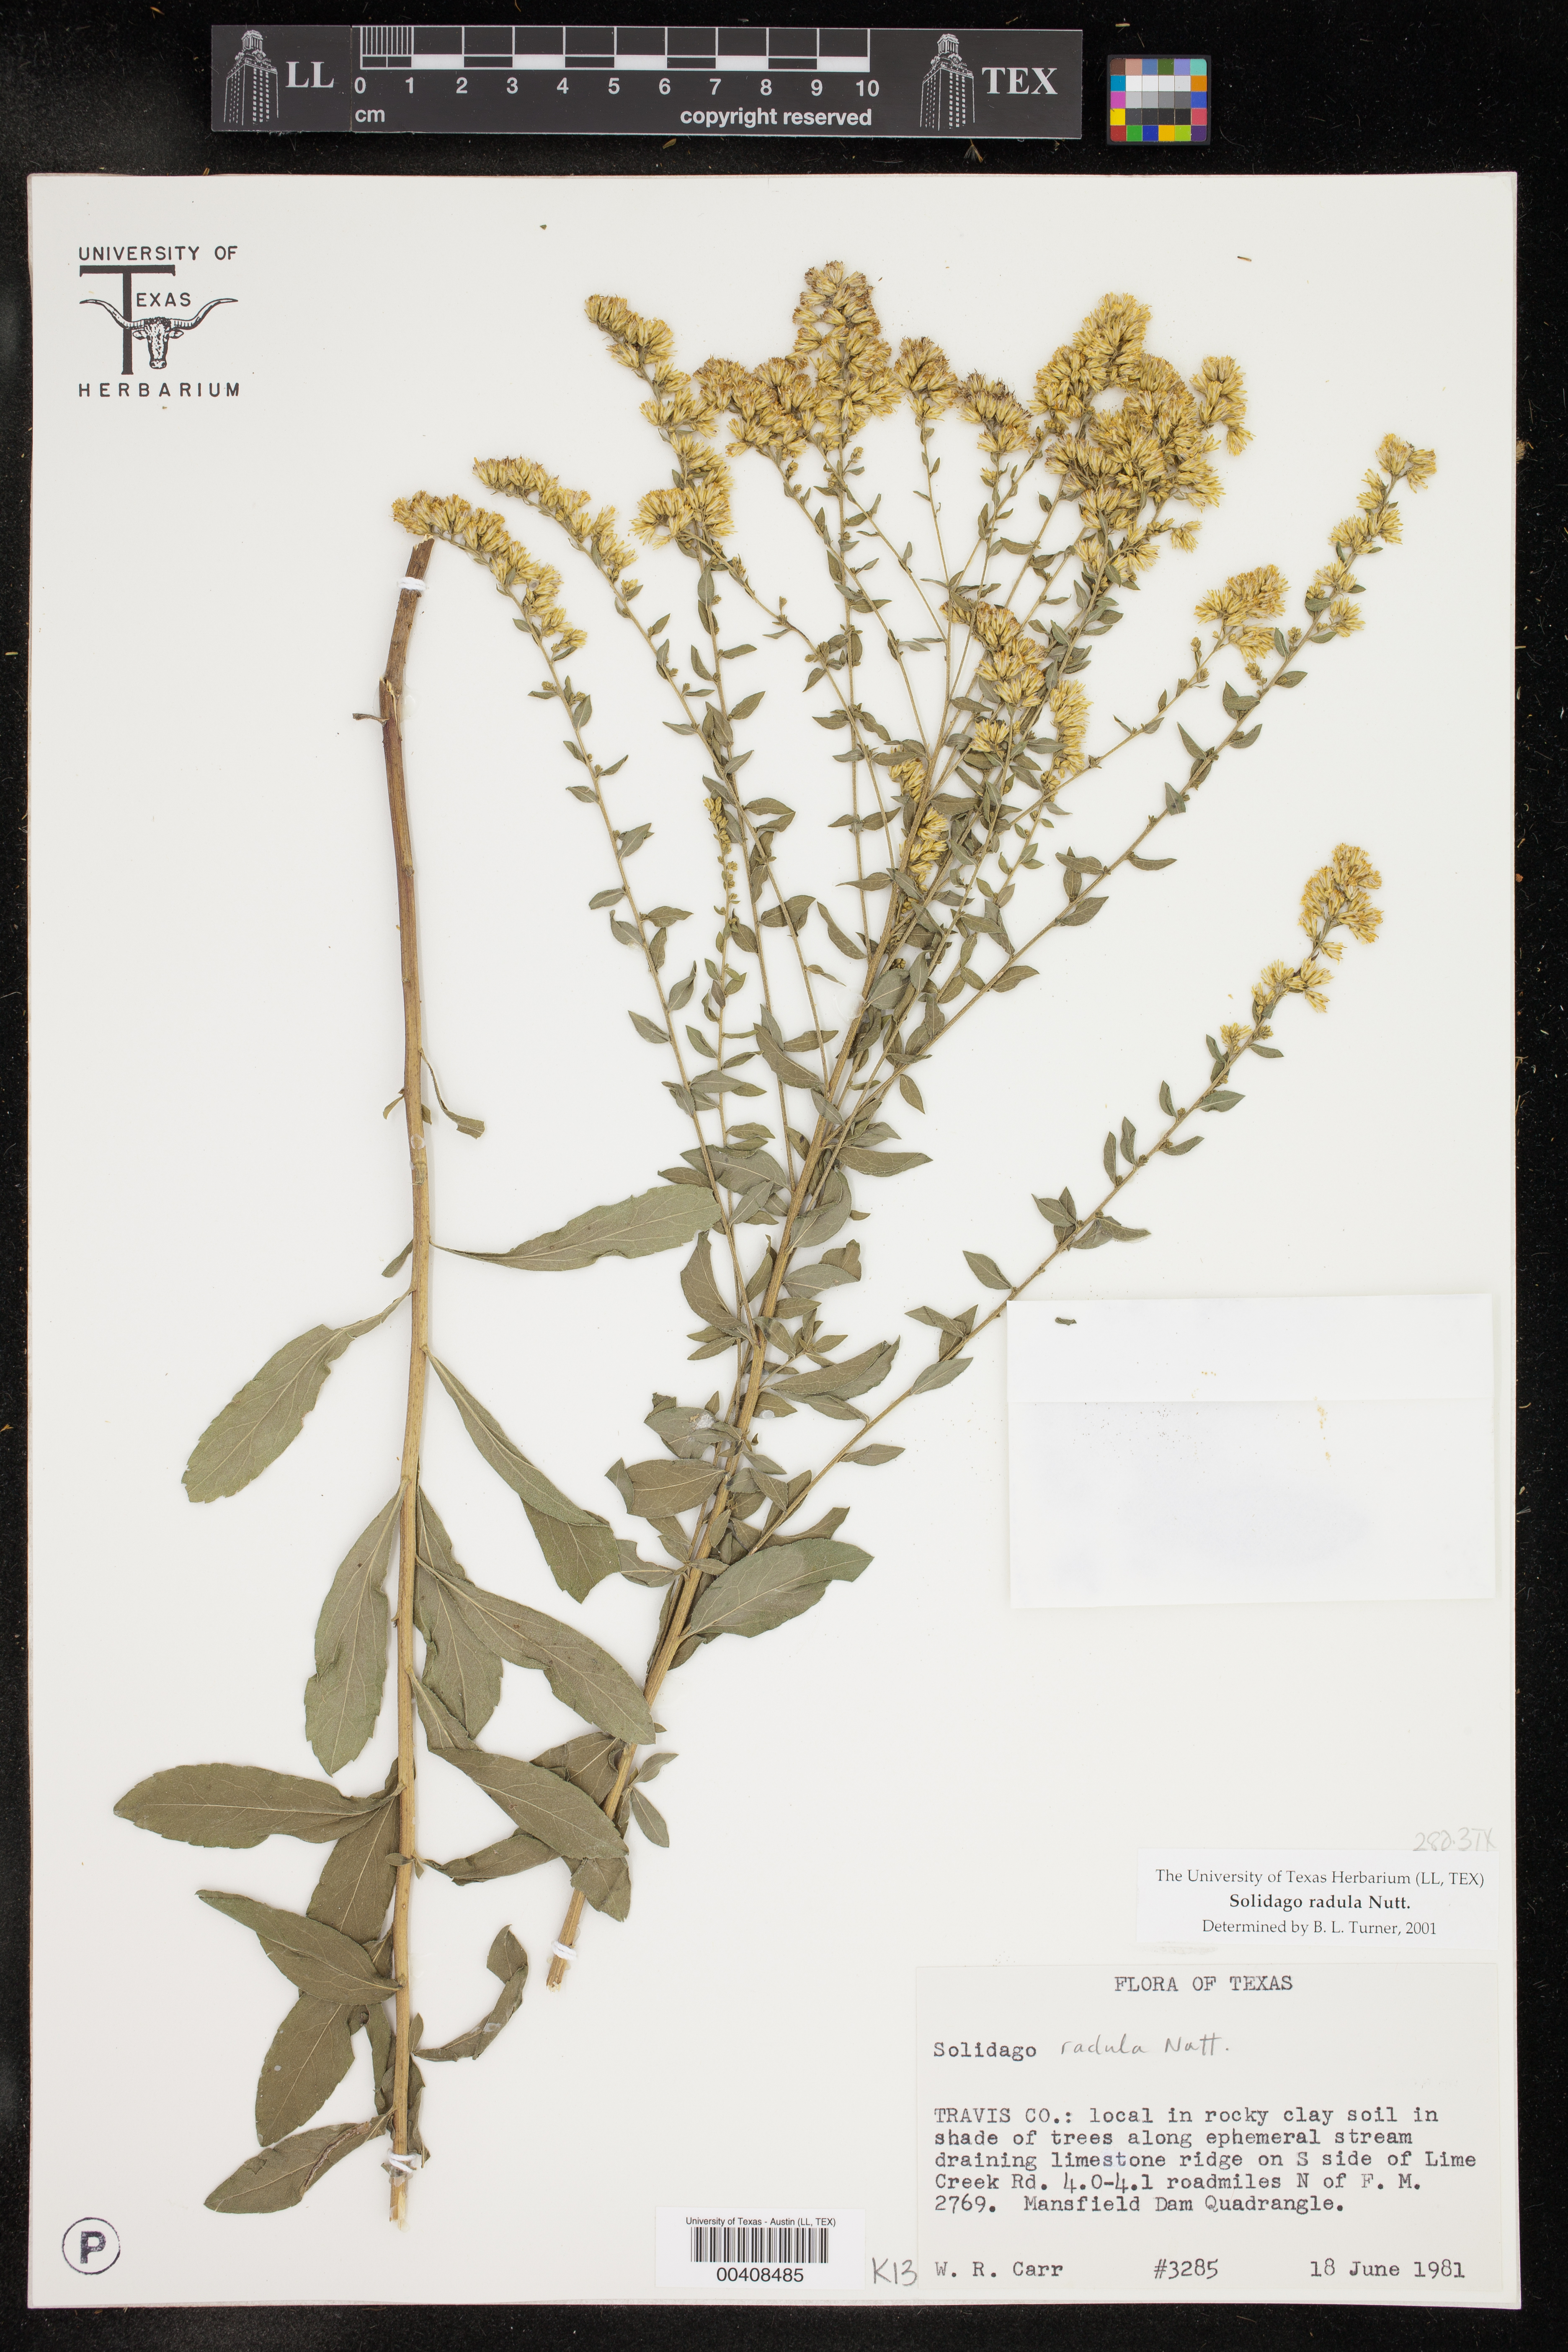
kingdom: Plantae
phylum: Tracheophyta
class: Magnoliopsida
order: Asterales
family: Asteraceae
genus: Solidago
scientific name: Solidago radula
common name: Western rough goldenrod
